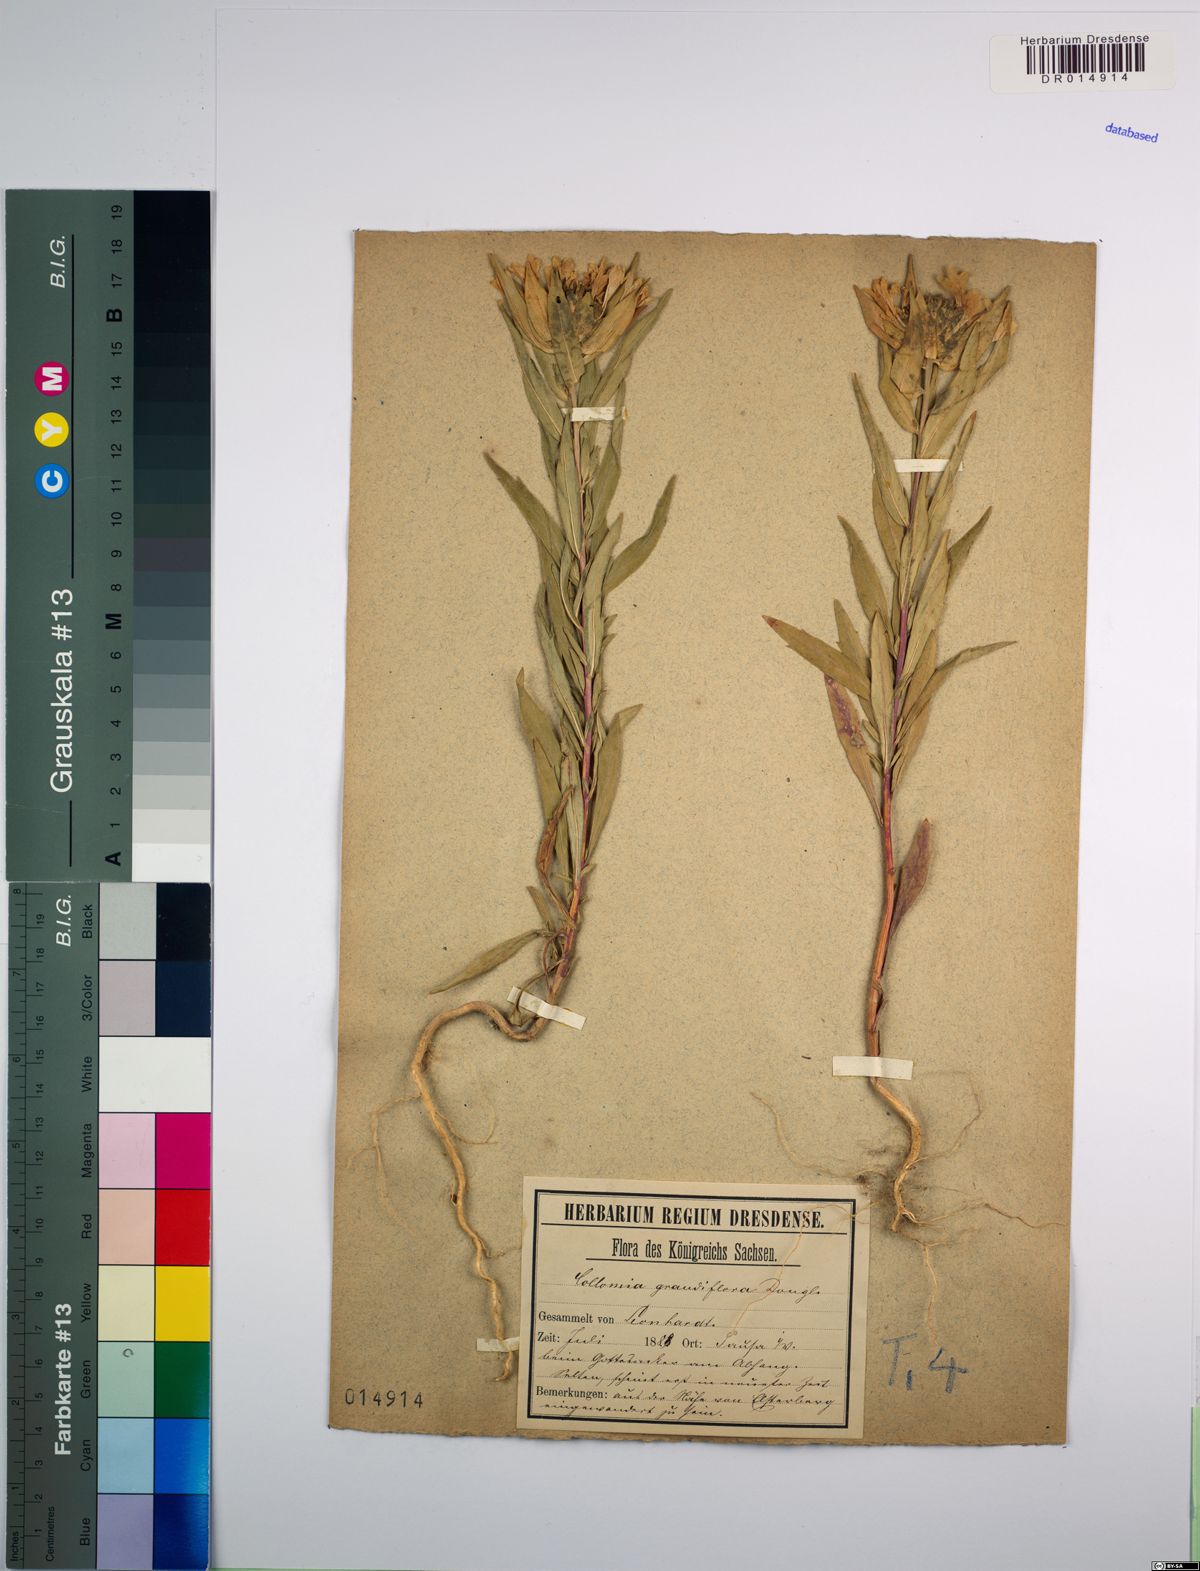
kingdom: Plantae
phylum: Tracheophyta
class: Magnoliopsida
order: Ericales
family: Polemoniaceae
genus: Collomia
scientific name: Collomia grandiflora
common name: California strawflower
